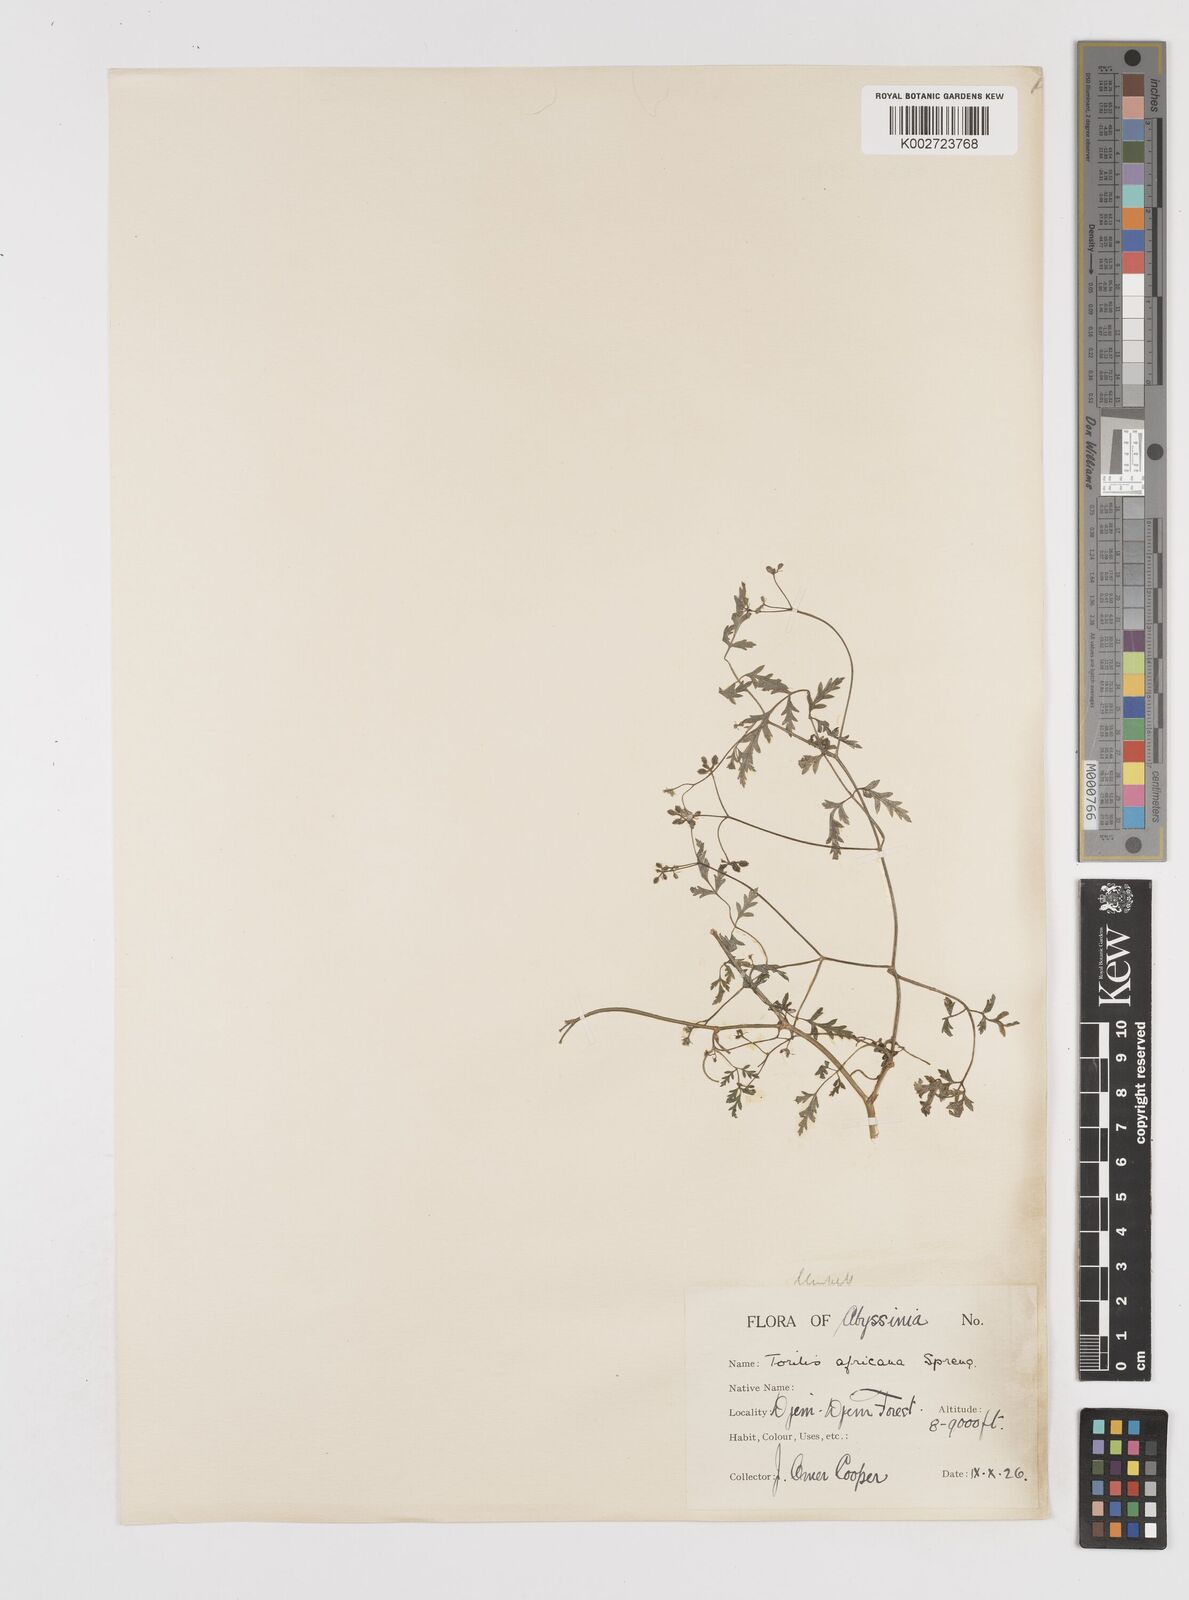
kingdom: Plantae
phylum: Tracheophyta
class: Magnoliopsida
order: Apiales
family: Apiaceae
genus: Torilis
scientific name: Torilis arvensis
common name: Spreading hedge-parsley
